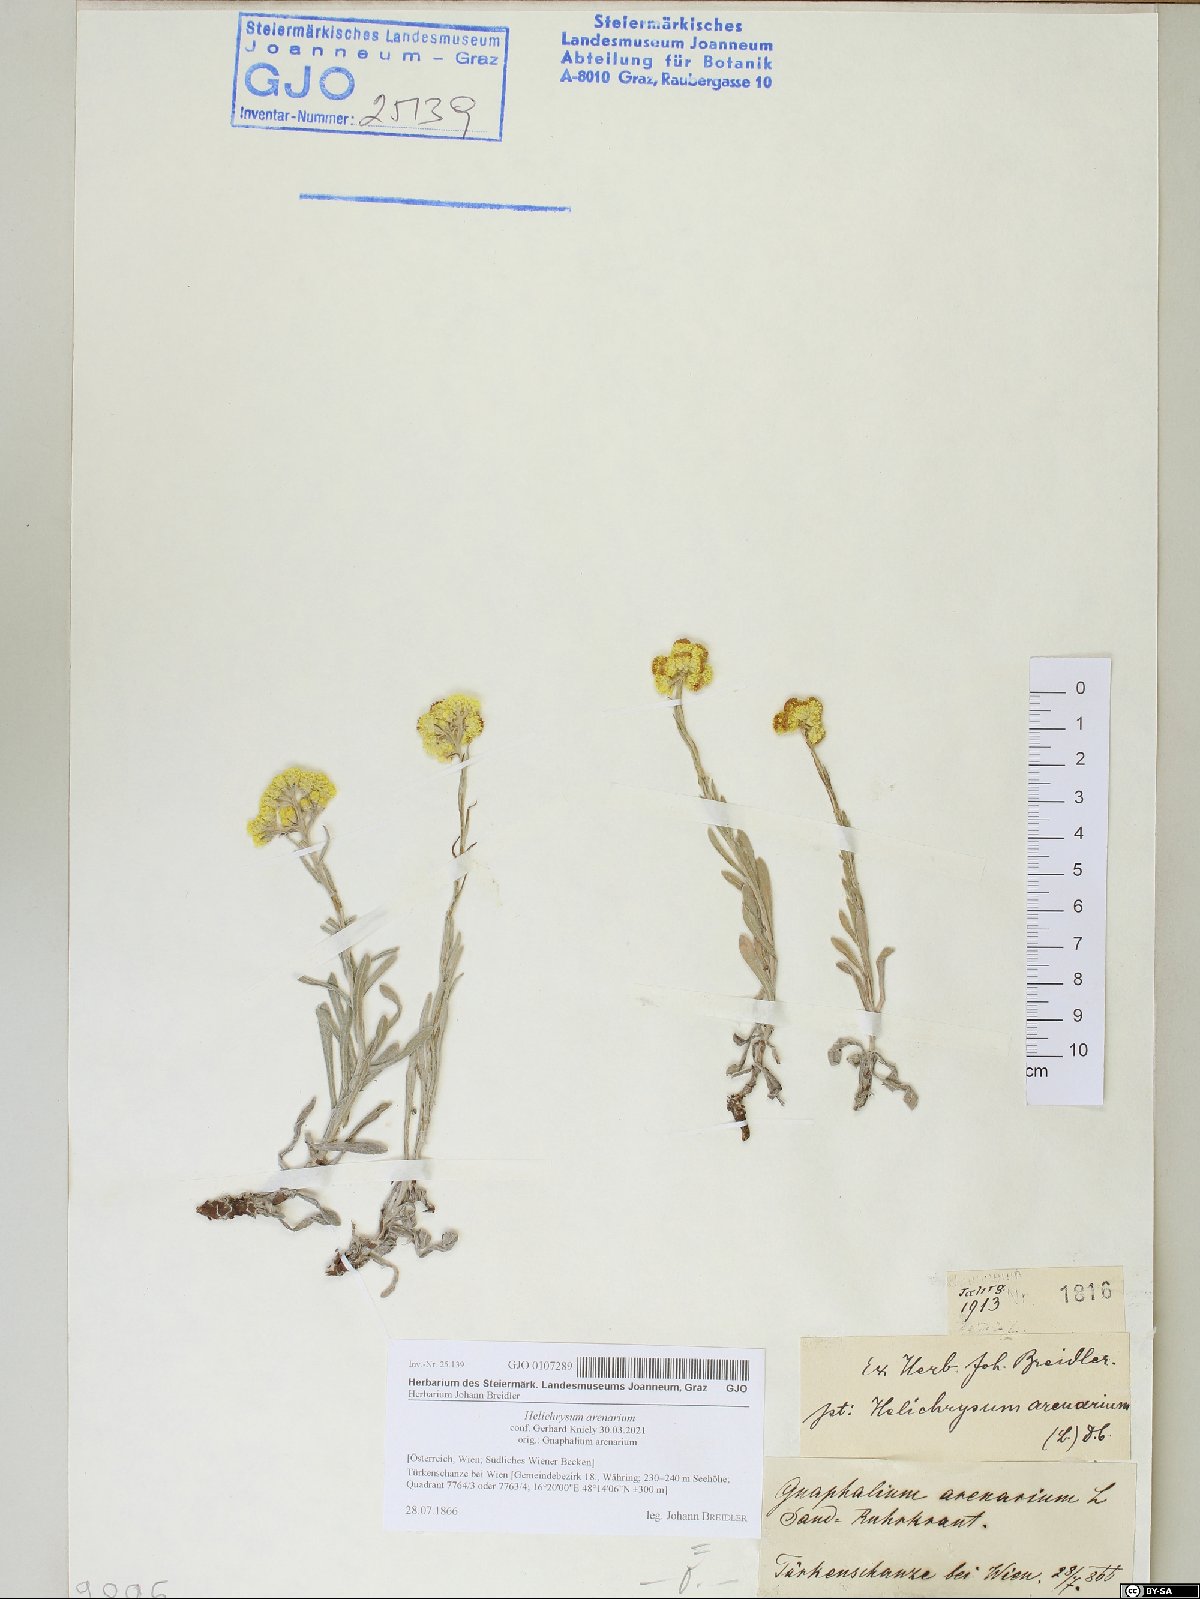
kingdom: Plantae
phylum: Tracheophyta
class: Magnoliopsida
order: Asterales
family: Asteraceae
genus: Helichrysum
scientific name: Helichrysum arenarium
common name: Strawflower
